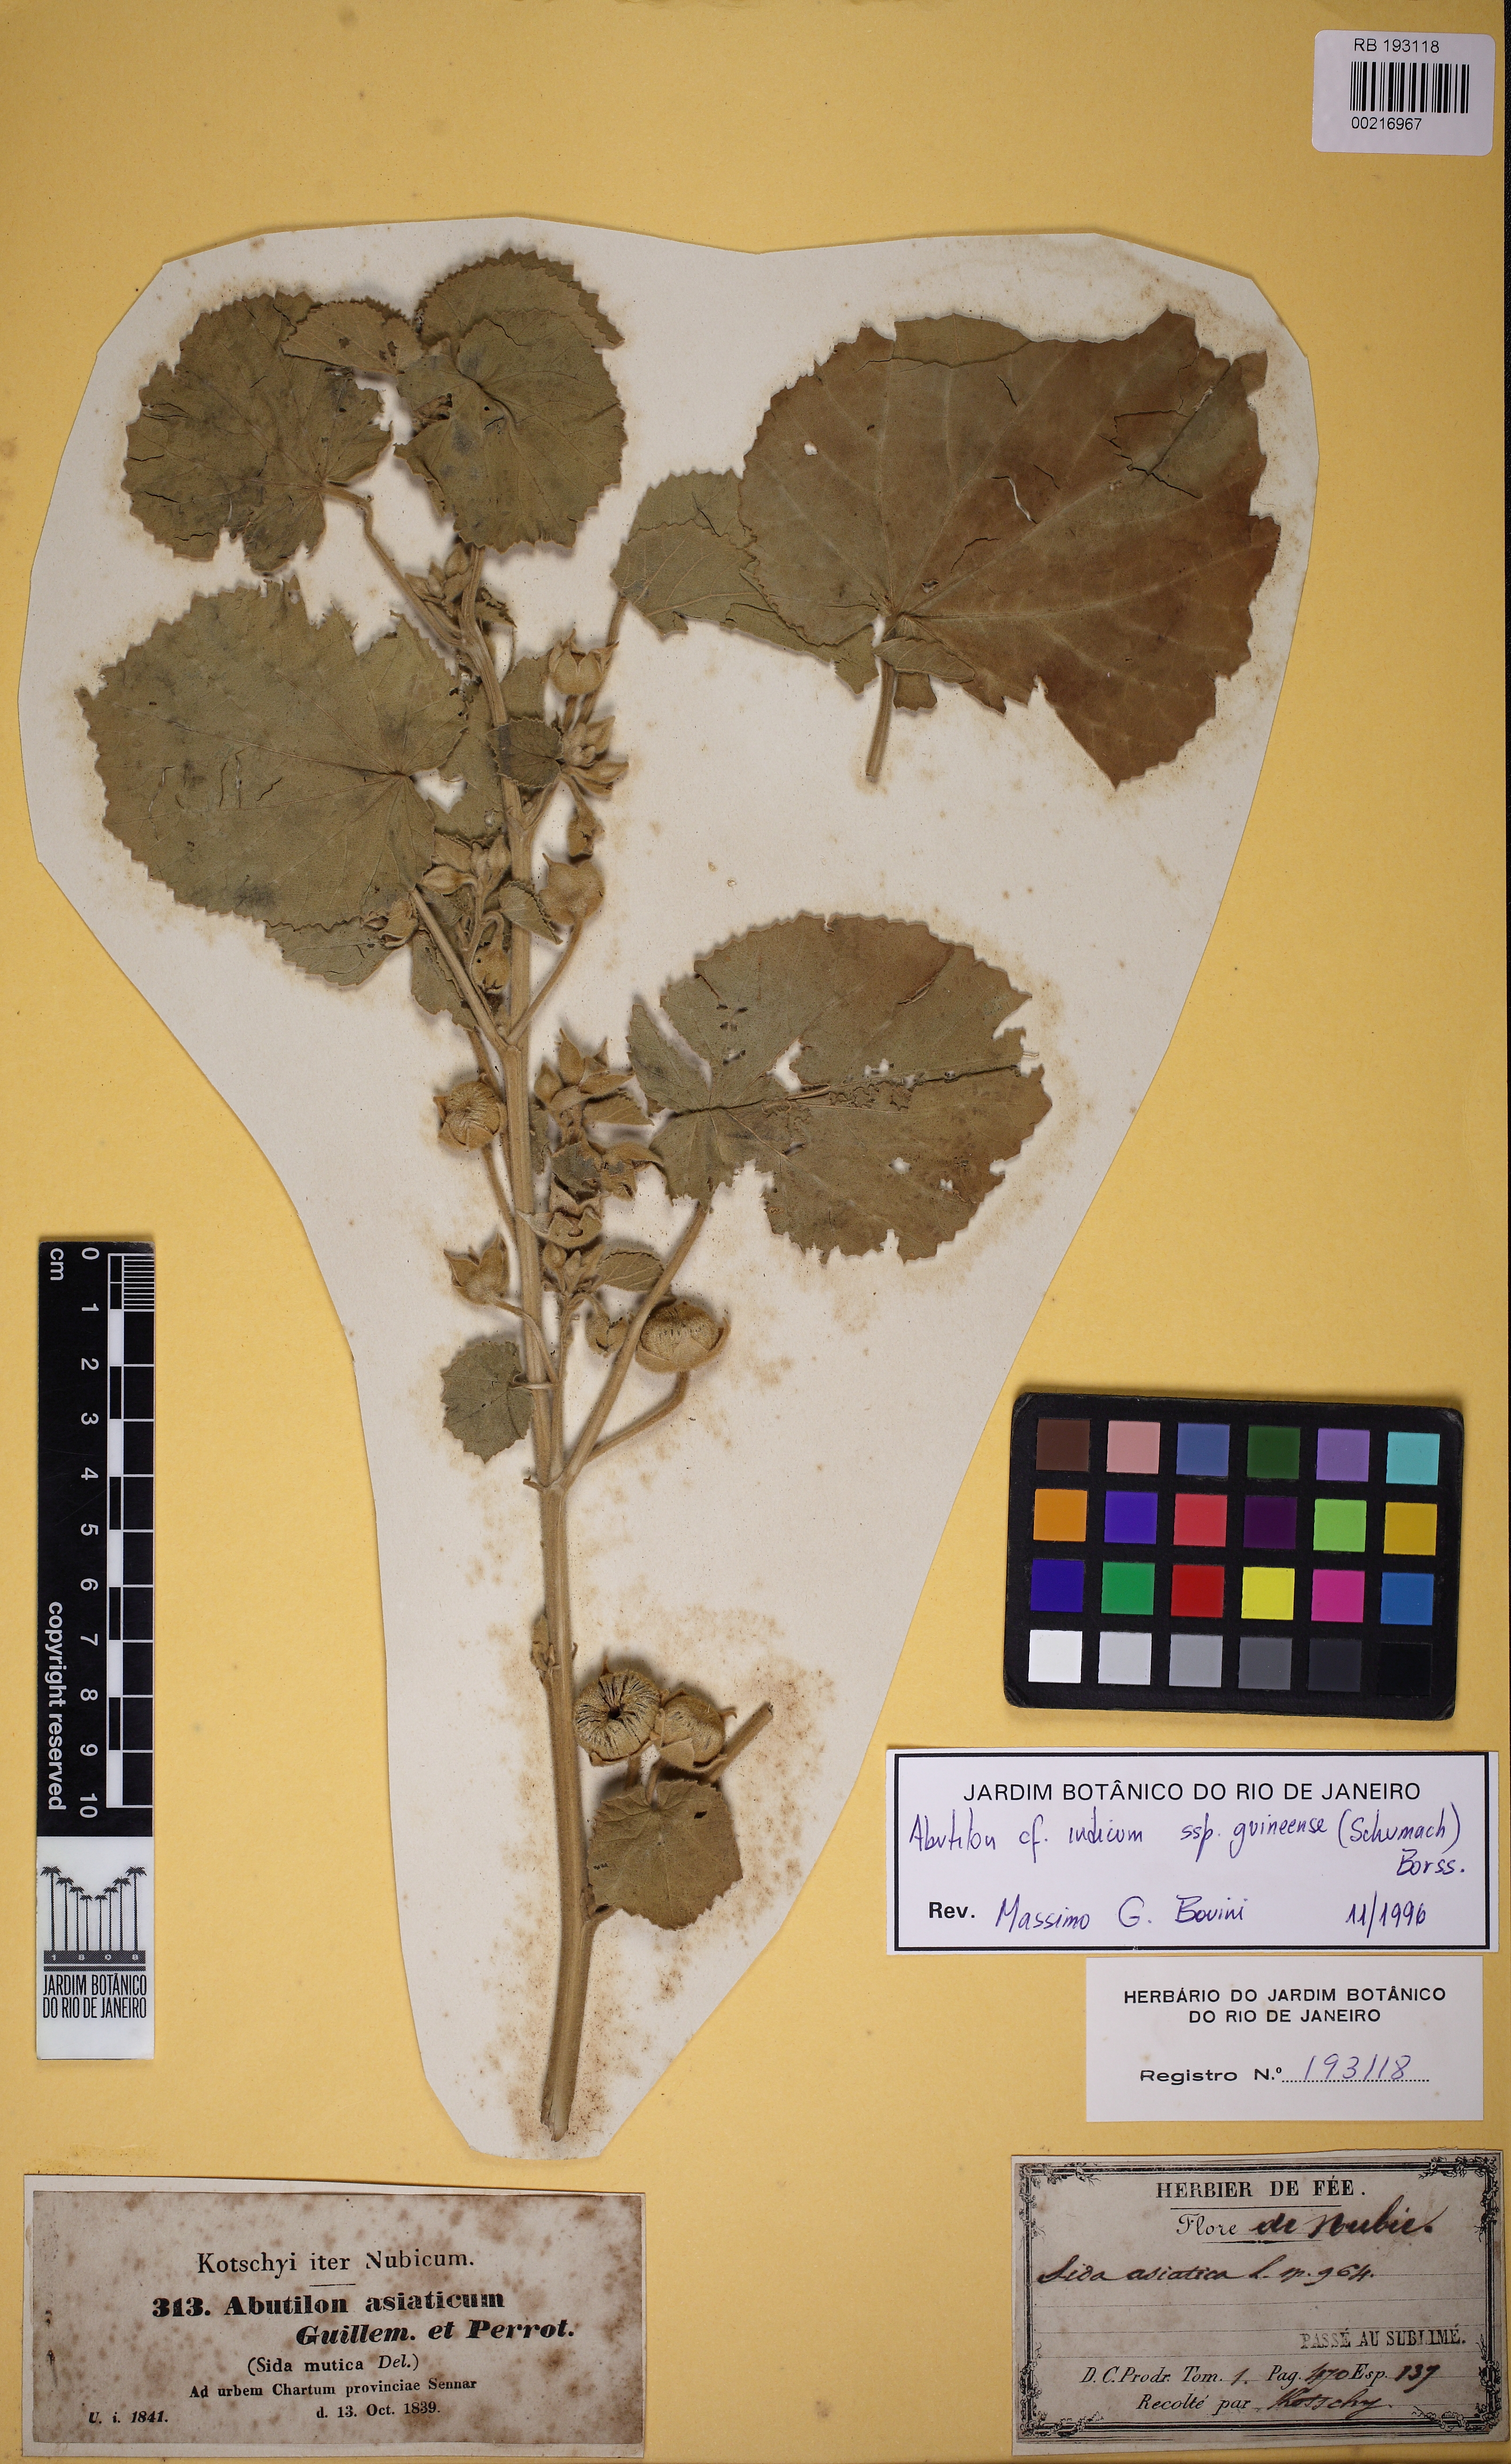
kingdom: Plantae
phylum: Tracheophyta
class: Magnoliopsida
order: Malvales
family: Malvaceae
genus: Abutilon
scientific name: Abutilon guineense
